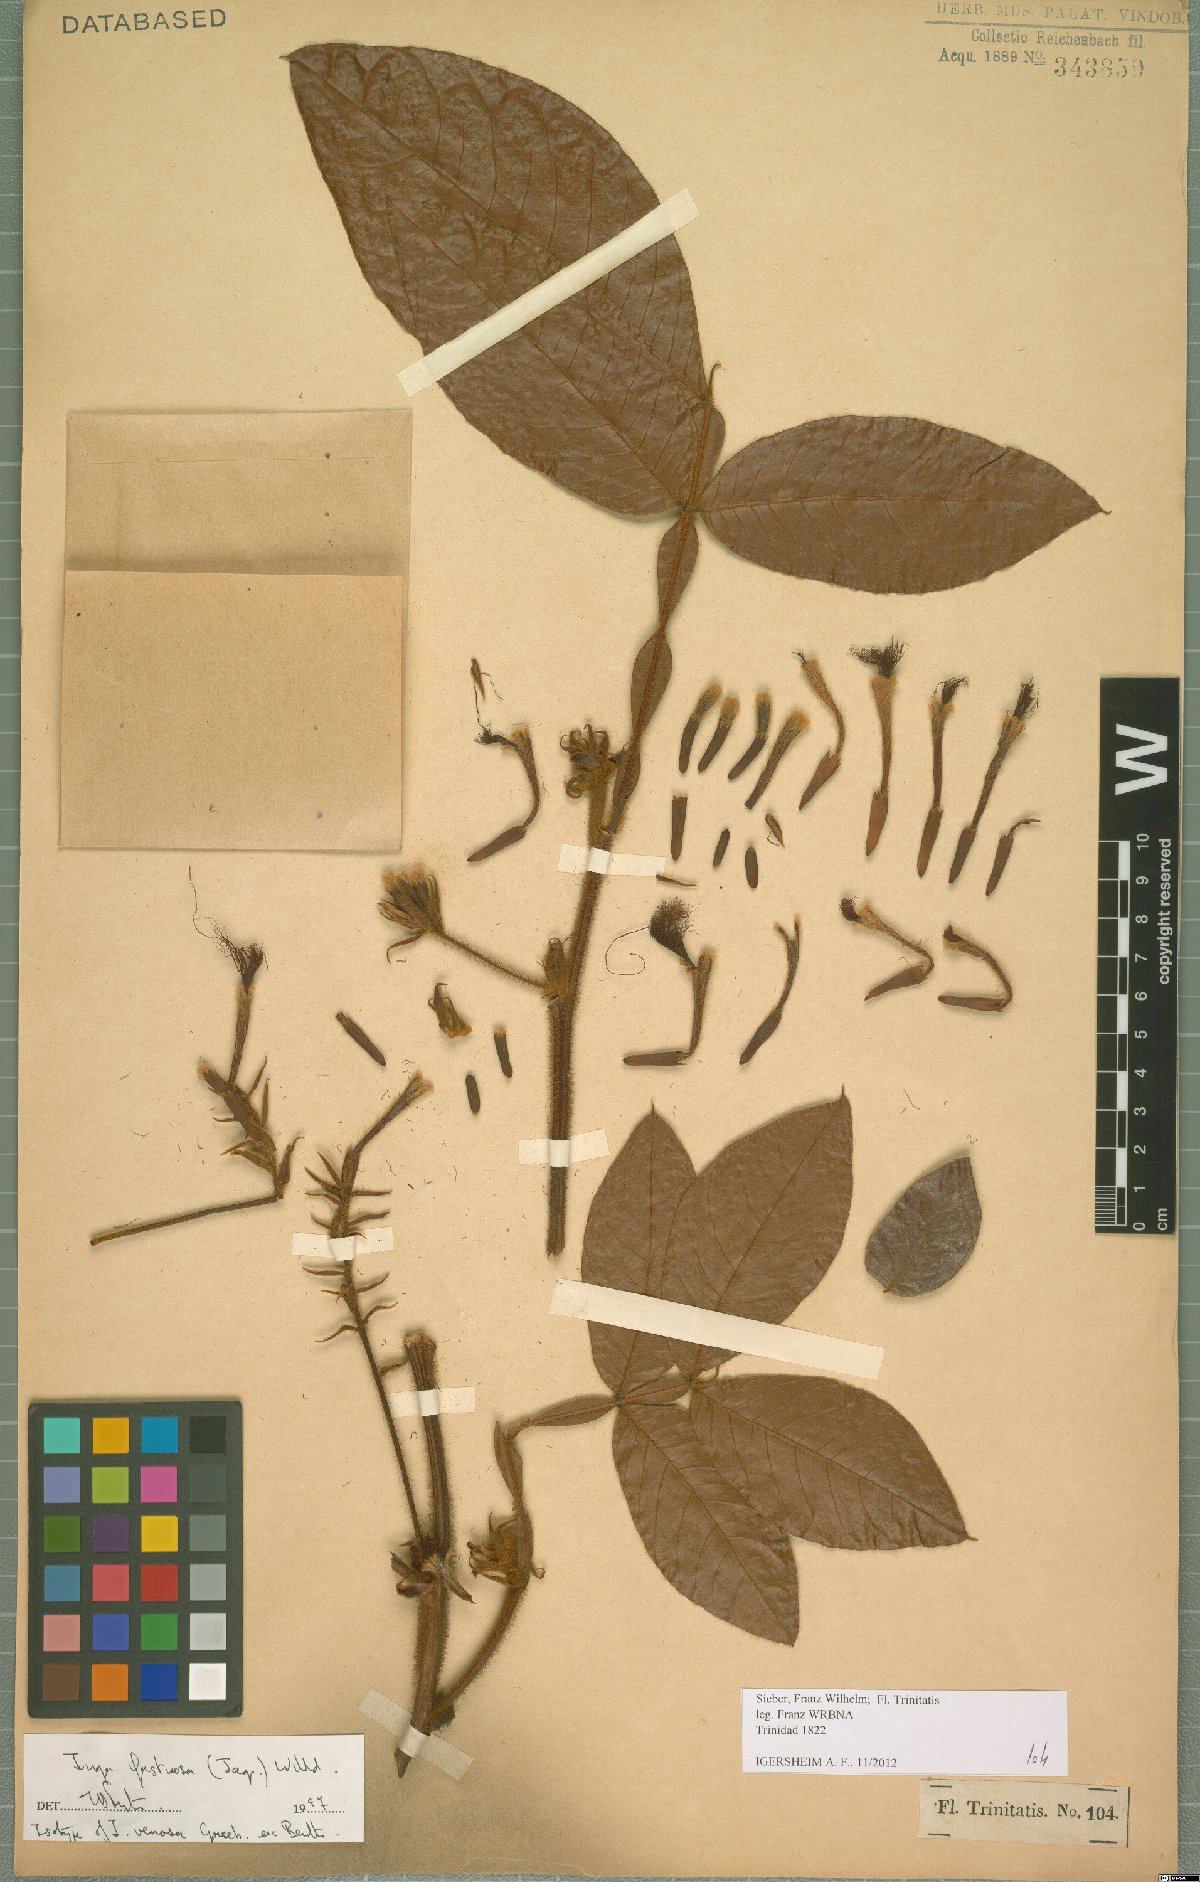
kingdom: Plantae
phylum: Tracheophyta
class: Magnoliopsida
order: Fabales
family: Fabaceae
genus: Inga
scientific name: Inga fastuosa
